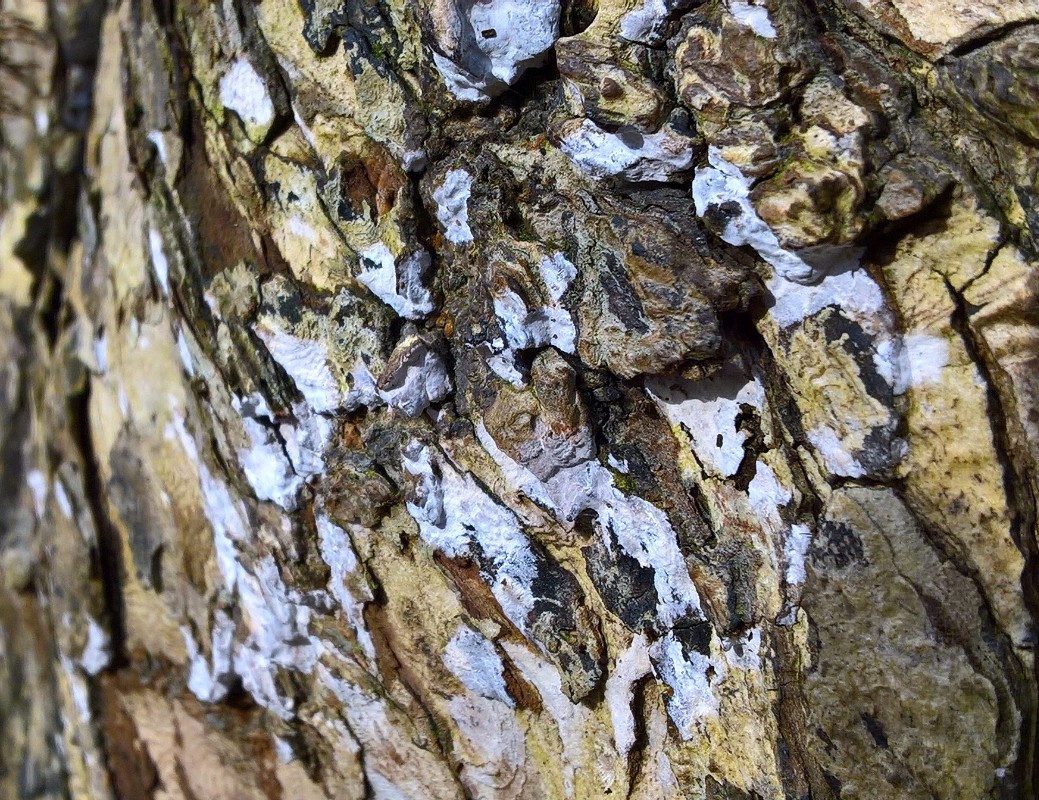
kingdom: Fungi
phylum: Basidiomycota
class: Agaricomycetes
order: Agaricales
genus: Dendrothele
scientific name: Dendrothele acerina
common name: navr-kalkplet
